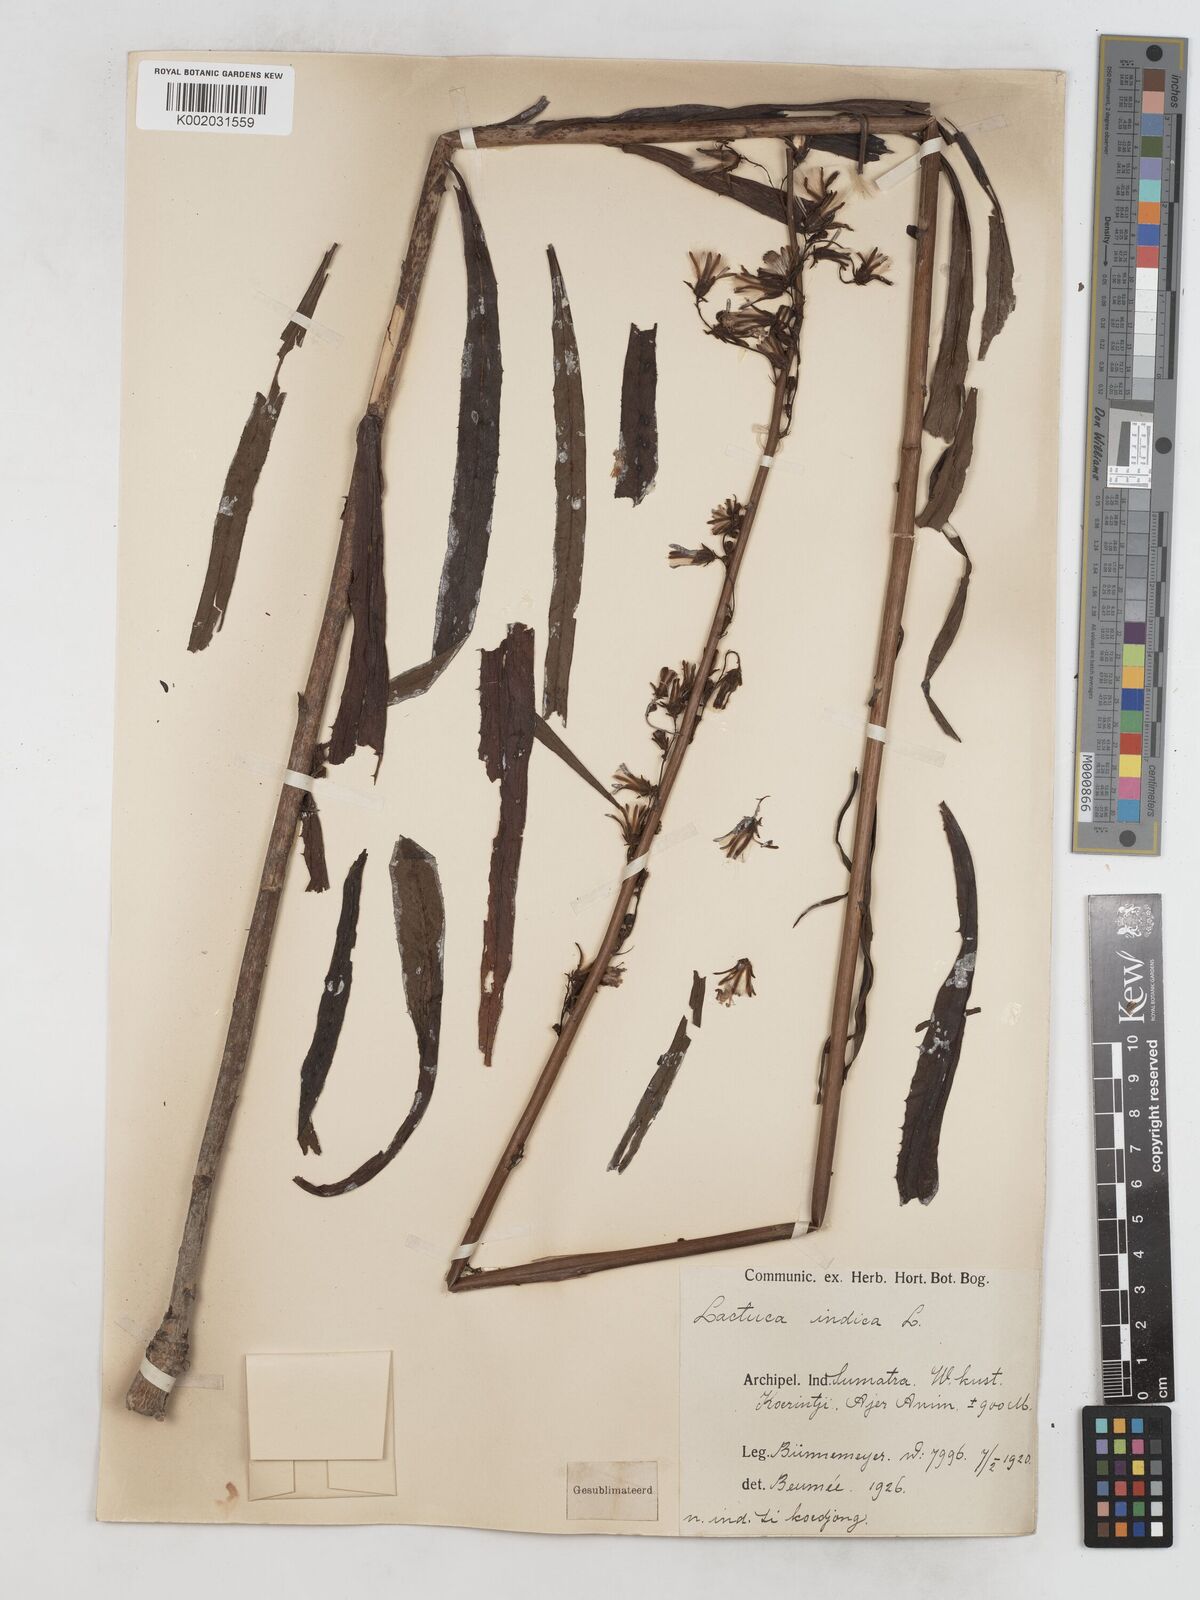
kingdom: Plantae
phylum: Tracheophyta
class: Magnoliopsida
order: Asterales
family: Asteraceae
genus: Lactuca
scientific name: Lactuca indica
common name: Wild lettuce
